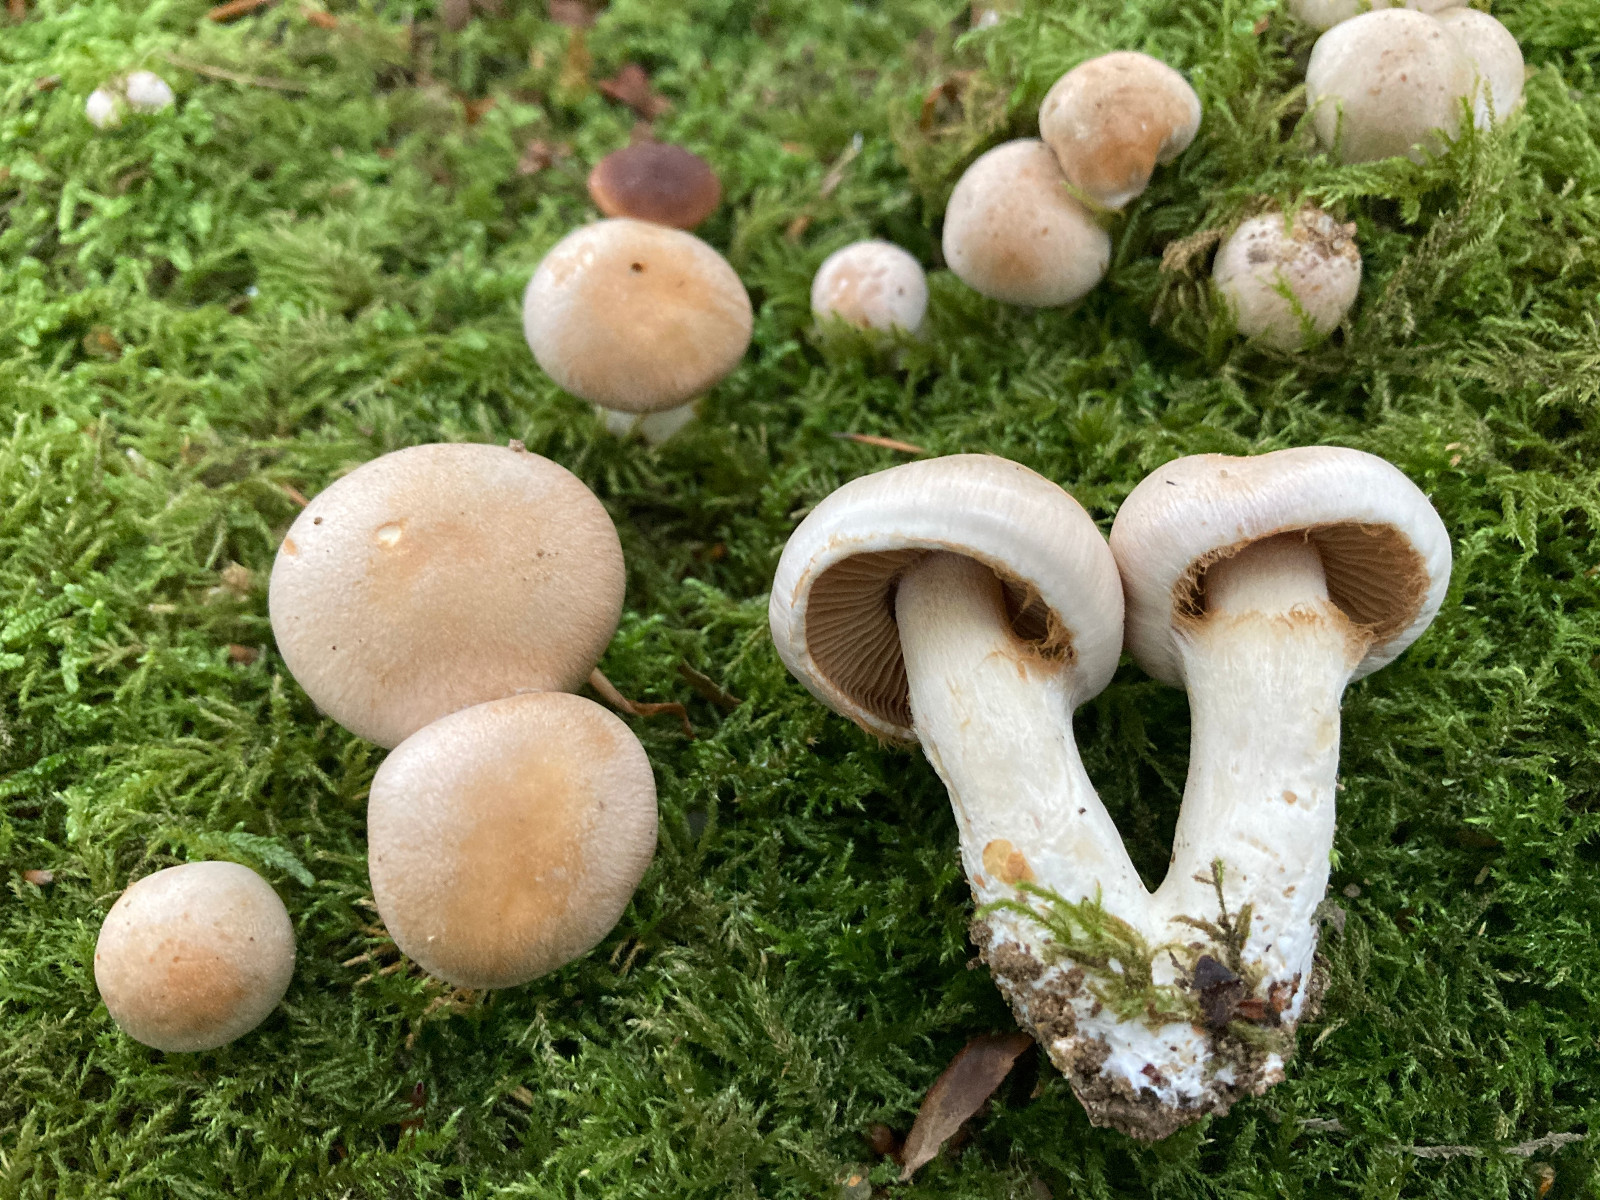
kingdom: Fungi
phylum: Basidiomycota
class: Agaricomycetes
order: Agaricales
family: Cortinariaceae
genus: Thaxterogaster
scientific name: Thaxterogaster
